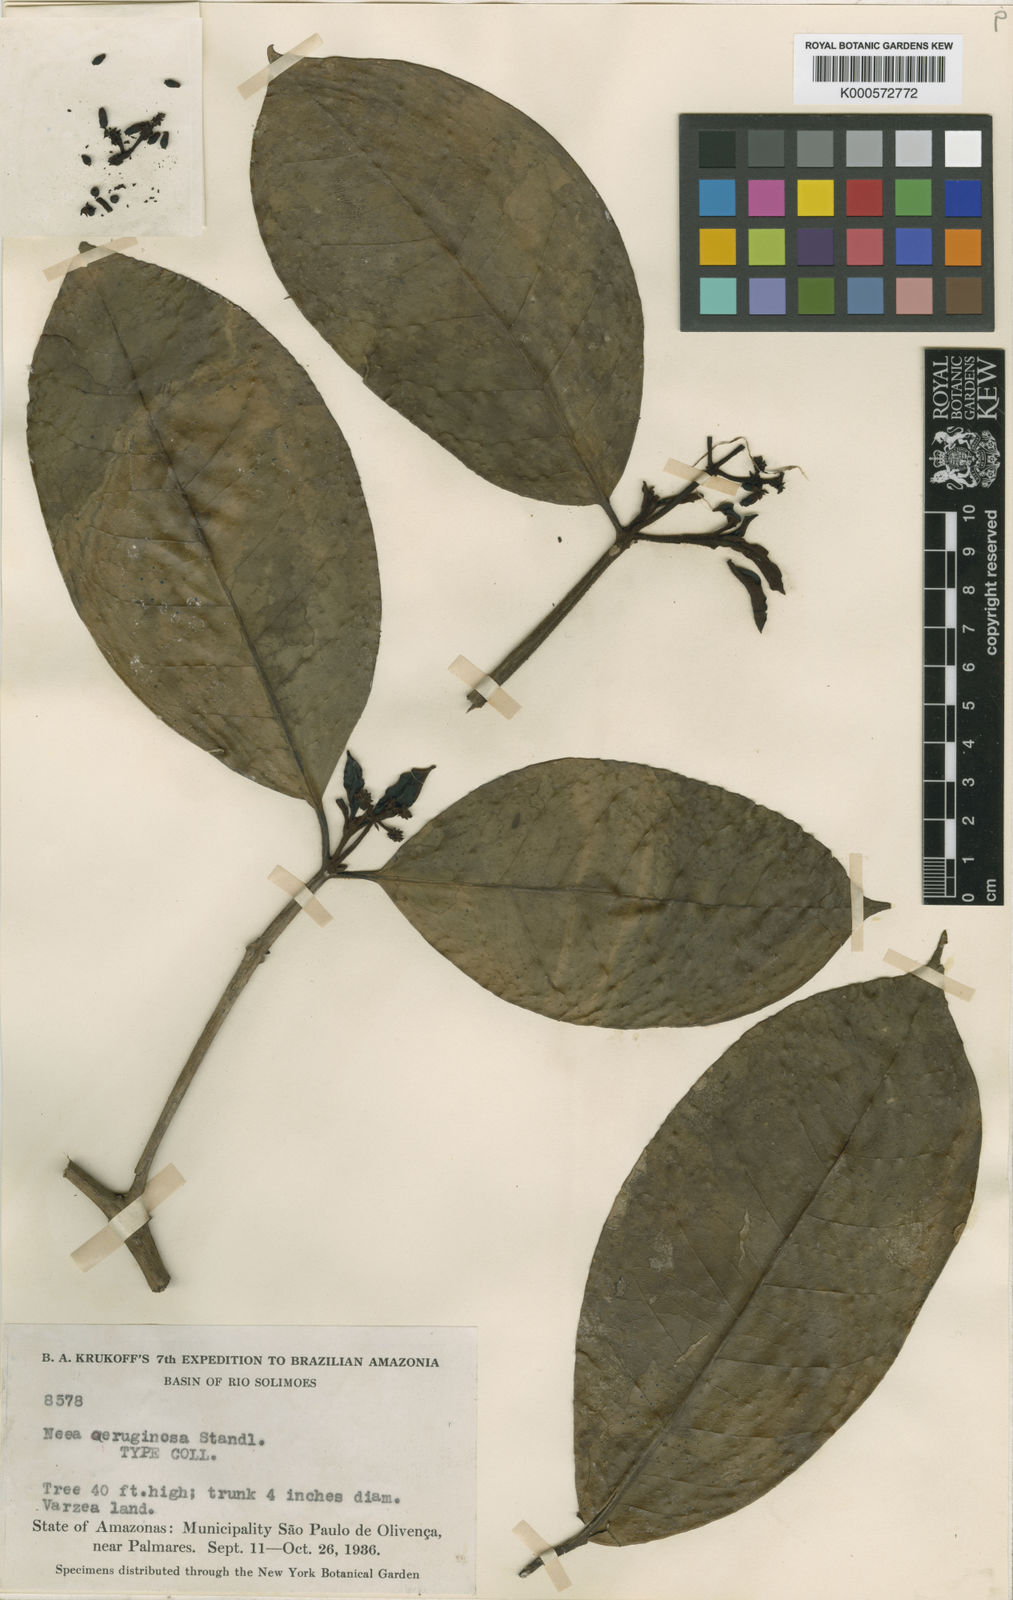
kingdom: Plantae
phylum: Tracheophyta
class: Magnoliopsida
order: Caryophyllales
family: Nyctaginaceae
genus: Neea
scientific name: Neea madeirana
